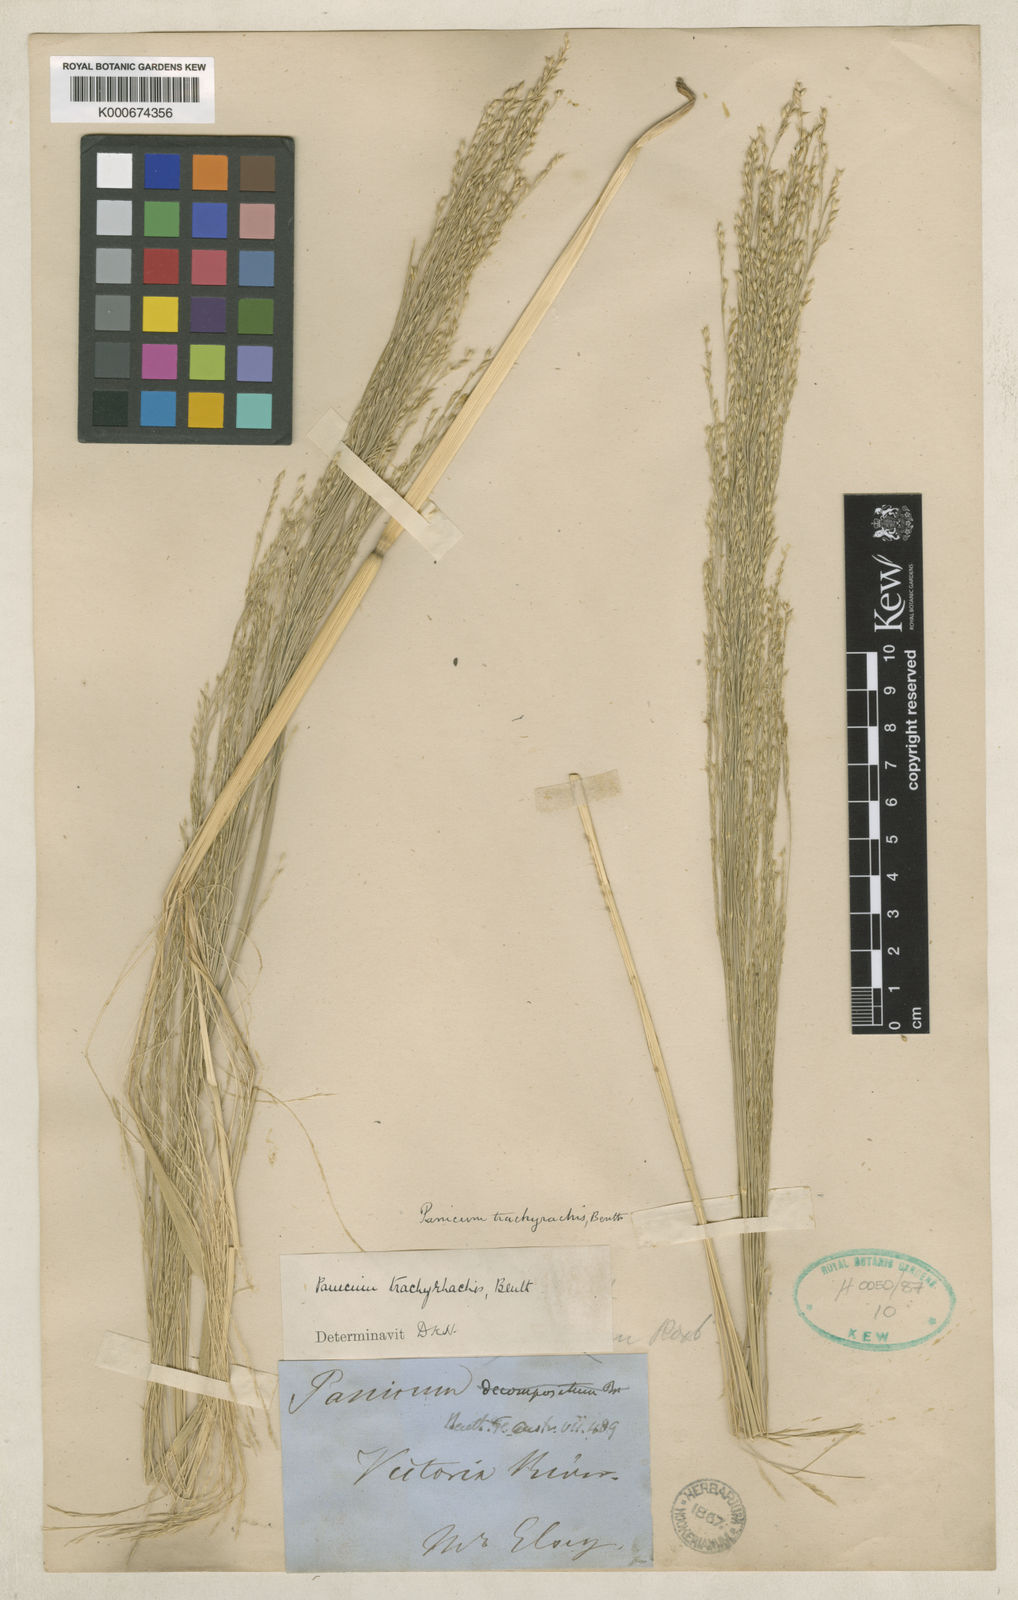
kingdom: Plantae
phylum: Tracheophyta
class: Liliopsida
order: Poales
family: Poaceae
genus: Panicum
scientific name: Panicum trachyrhachis
